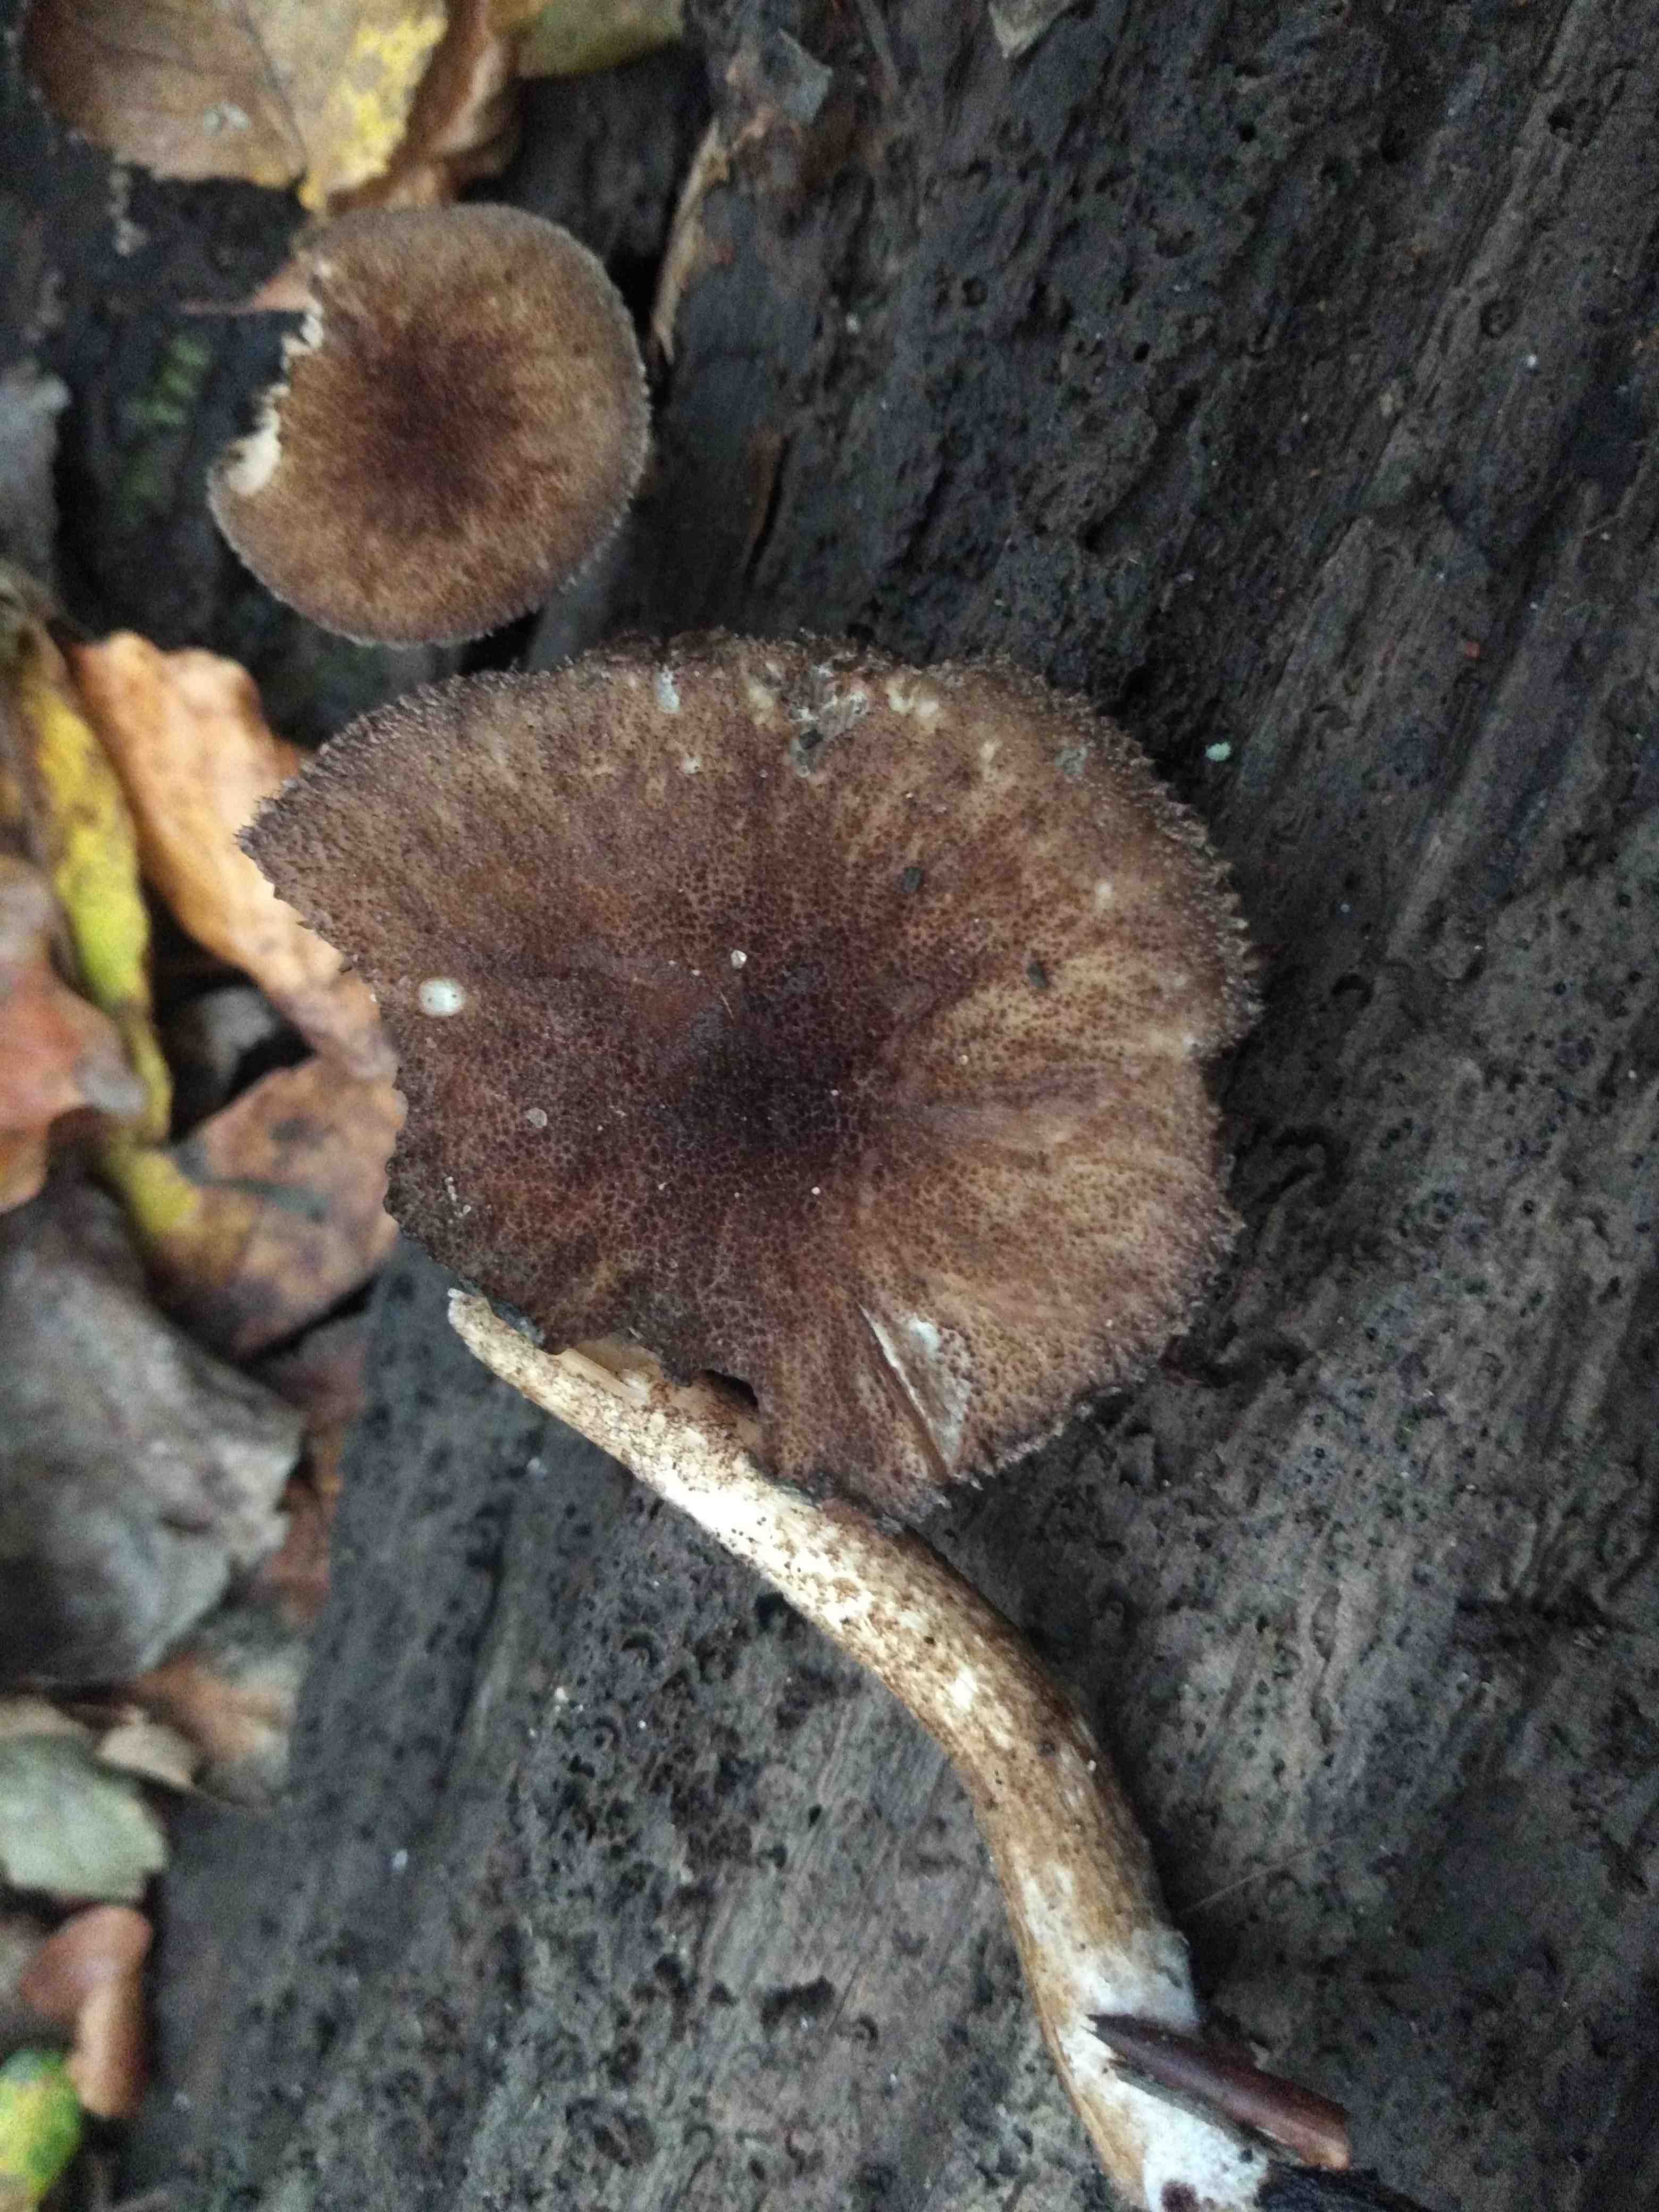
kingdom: Fungi
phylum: Basidiomycota
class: Agaricomycetes
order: Agaricales
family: Pluteaceae
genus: Pluteus
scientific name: Pluteus umbrosus
